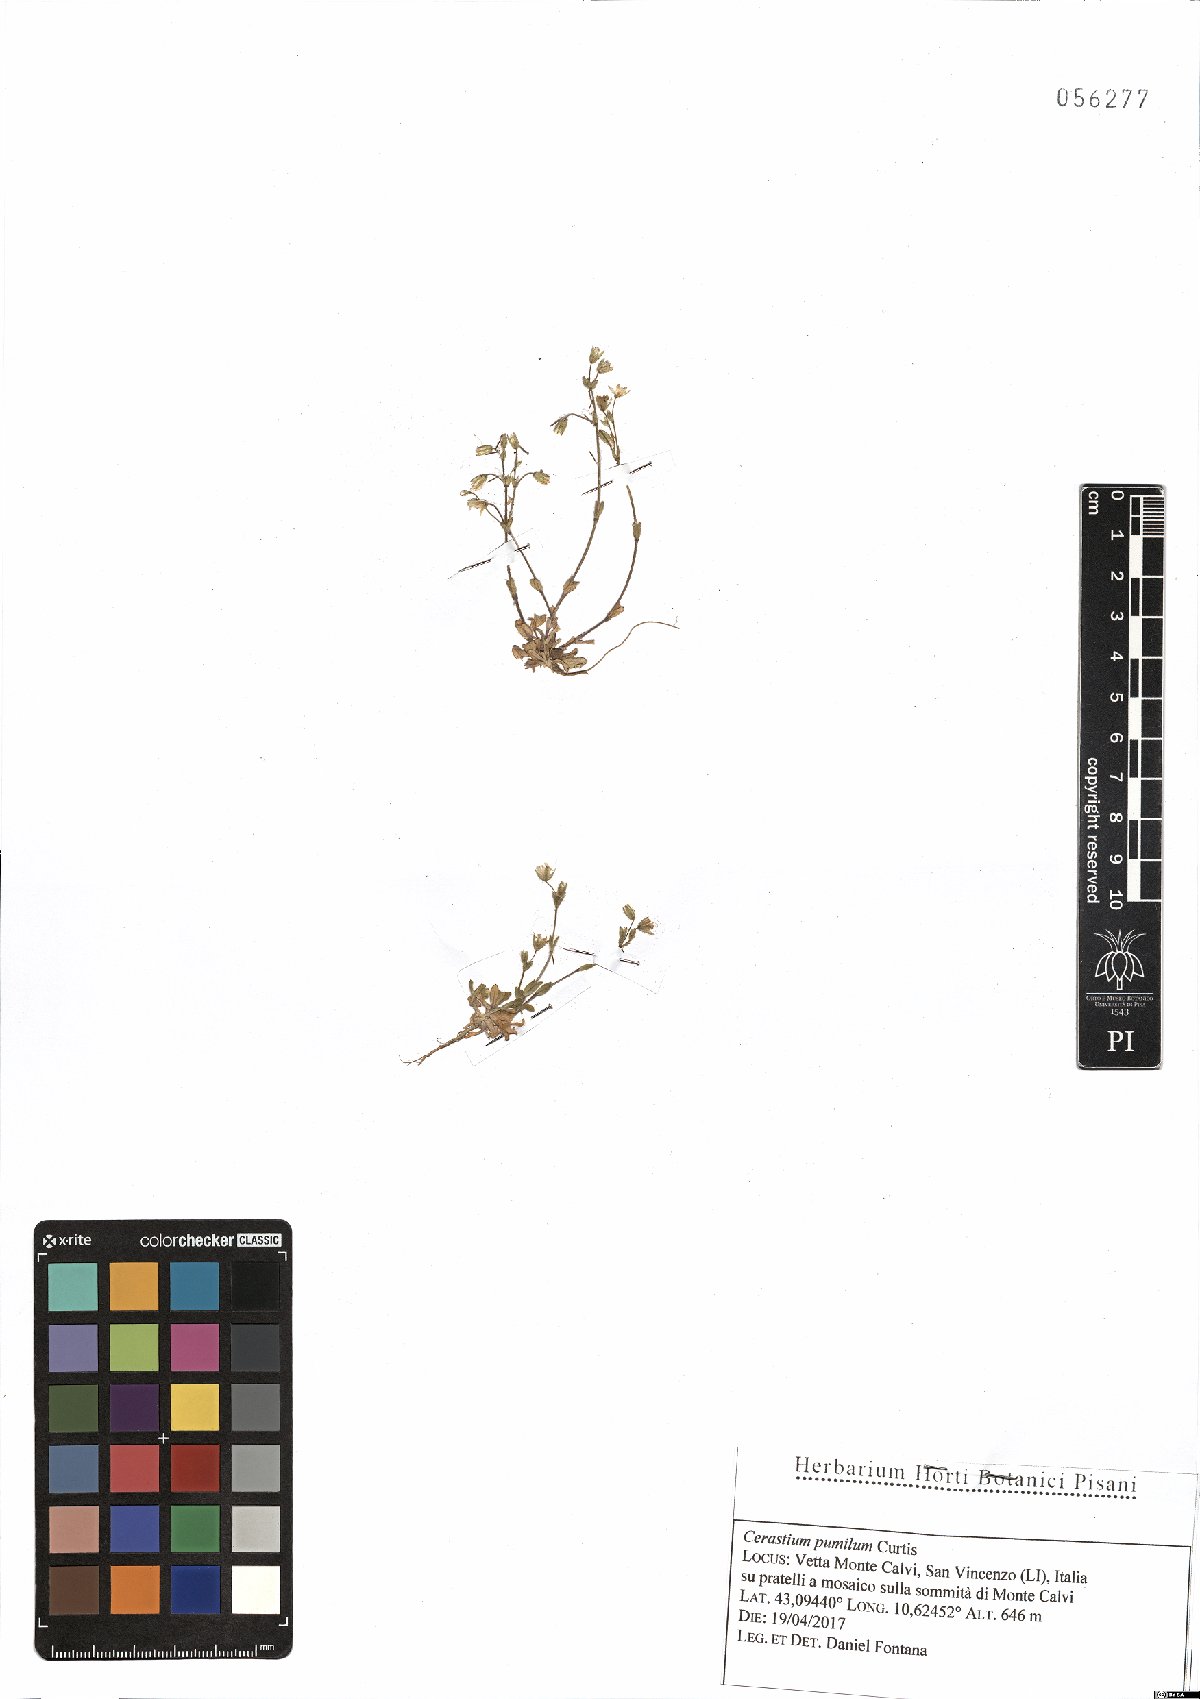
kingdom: Plantae
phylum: Tracheophyta
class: Magnoliopsida
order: Caryophyllales
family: Caryophyllaceae
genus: Cerastium
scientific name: Cerastium pumilum
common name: Dwarf mouse-ear
